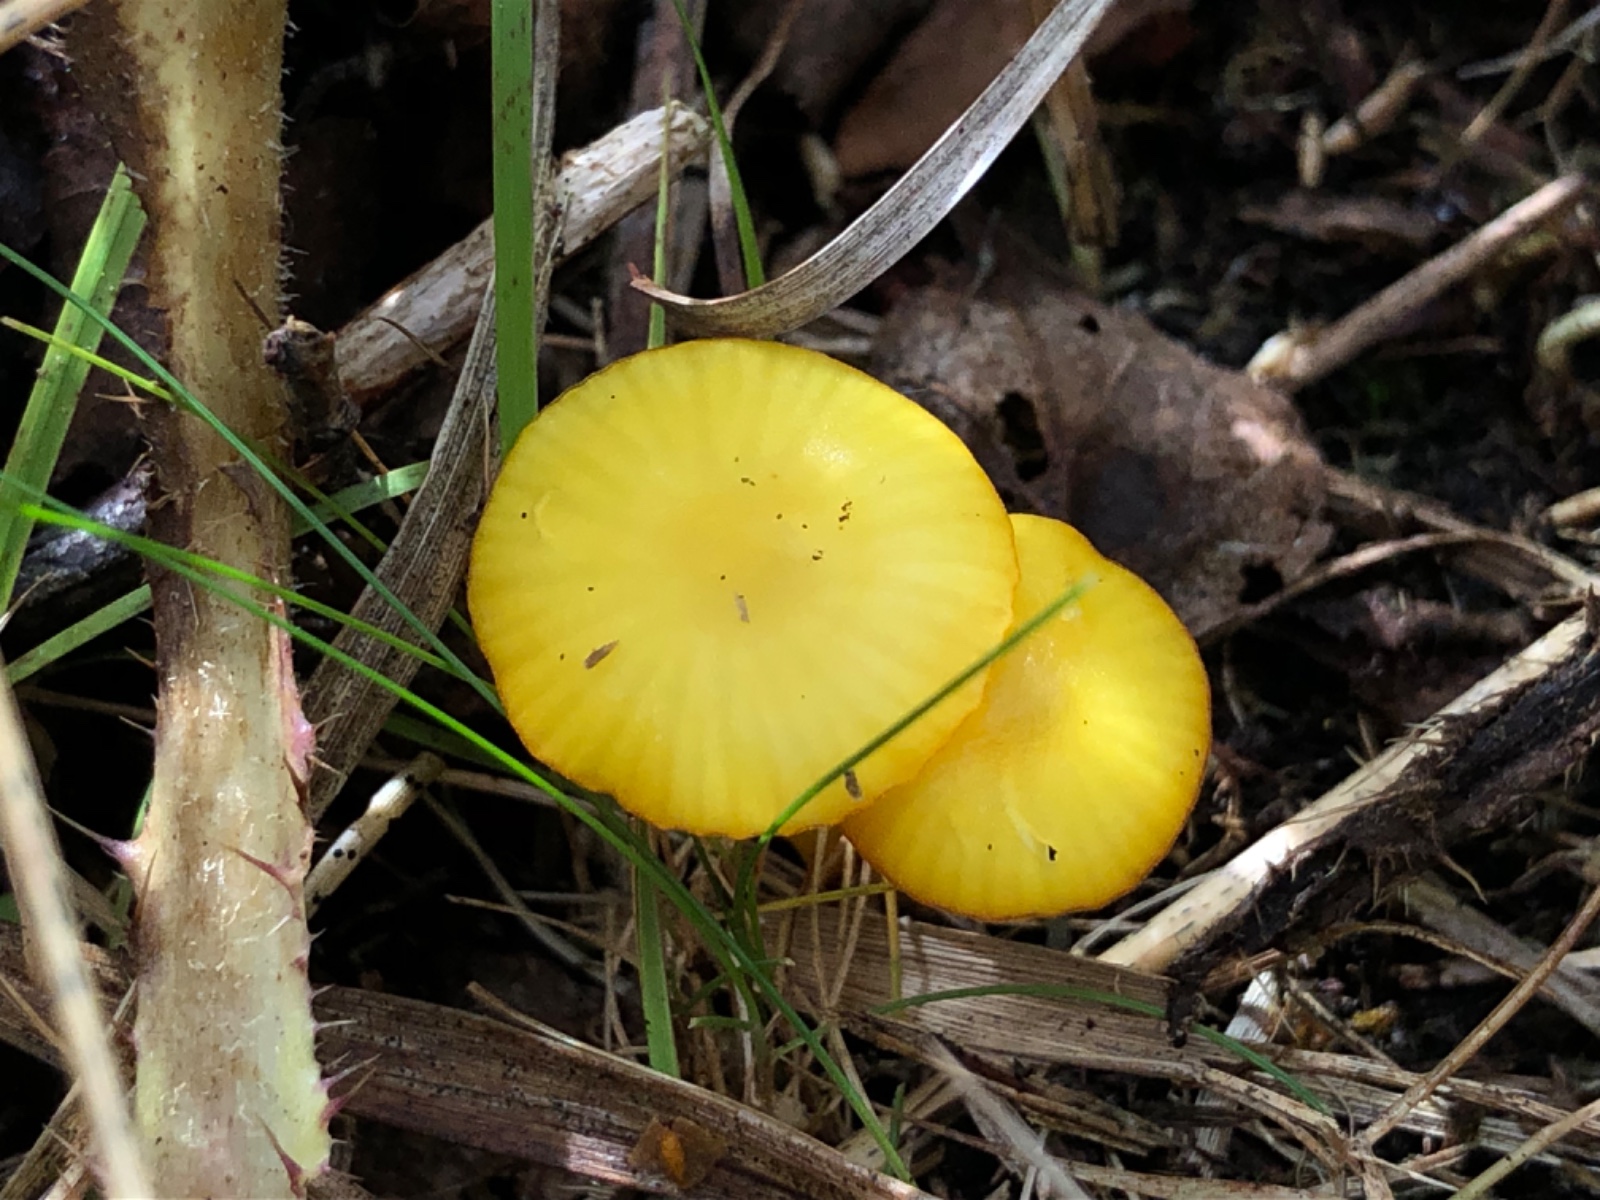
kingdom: Fungi
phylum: Basidiomycota
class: Agaricomycetes
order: Agaricales
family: Hygrophoraceae
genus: Hygrocybe
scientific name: Hygrocybe insipida
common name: liden vokshat
